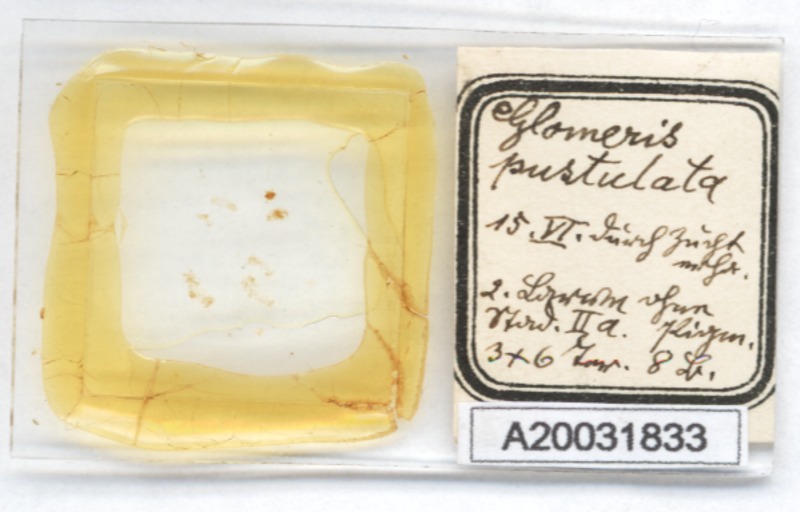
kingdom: Animalia
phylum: Arthropoda
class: Diplopoda
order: Glomerida
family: Glomeridae
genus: Glomeris
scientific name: Glomeris pustulata
